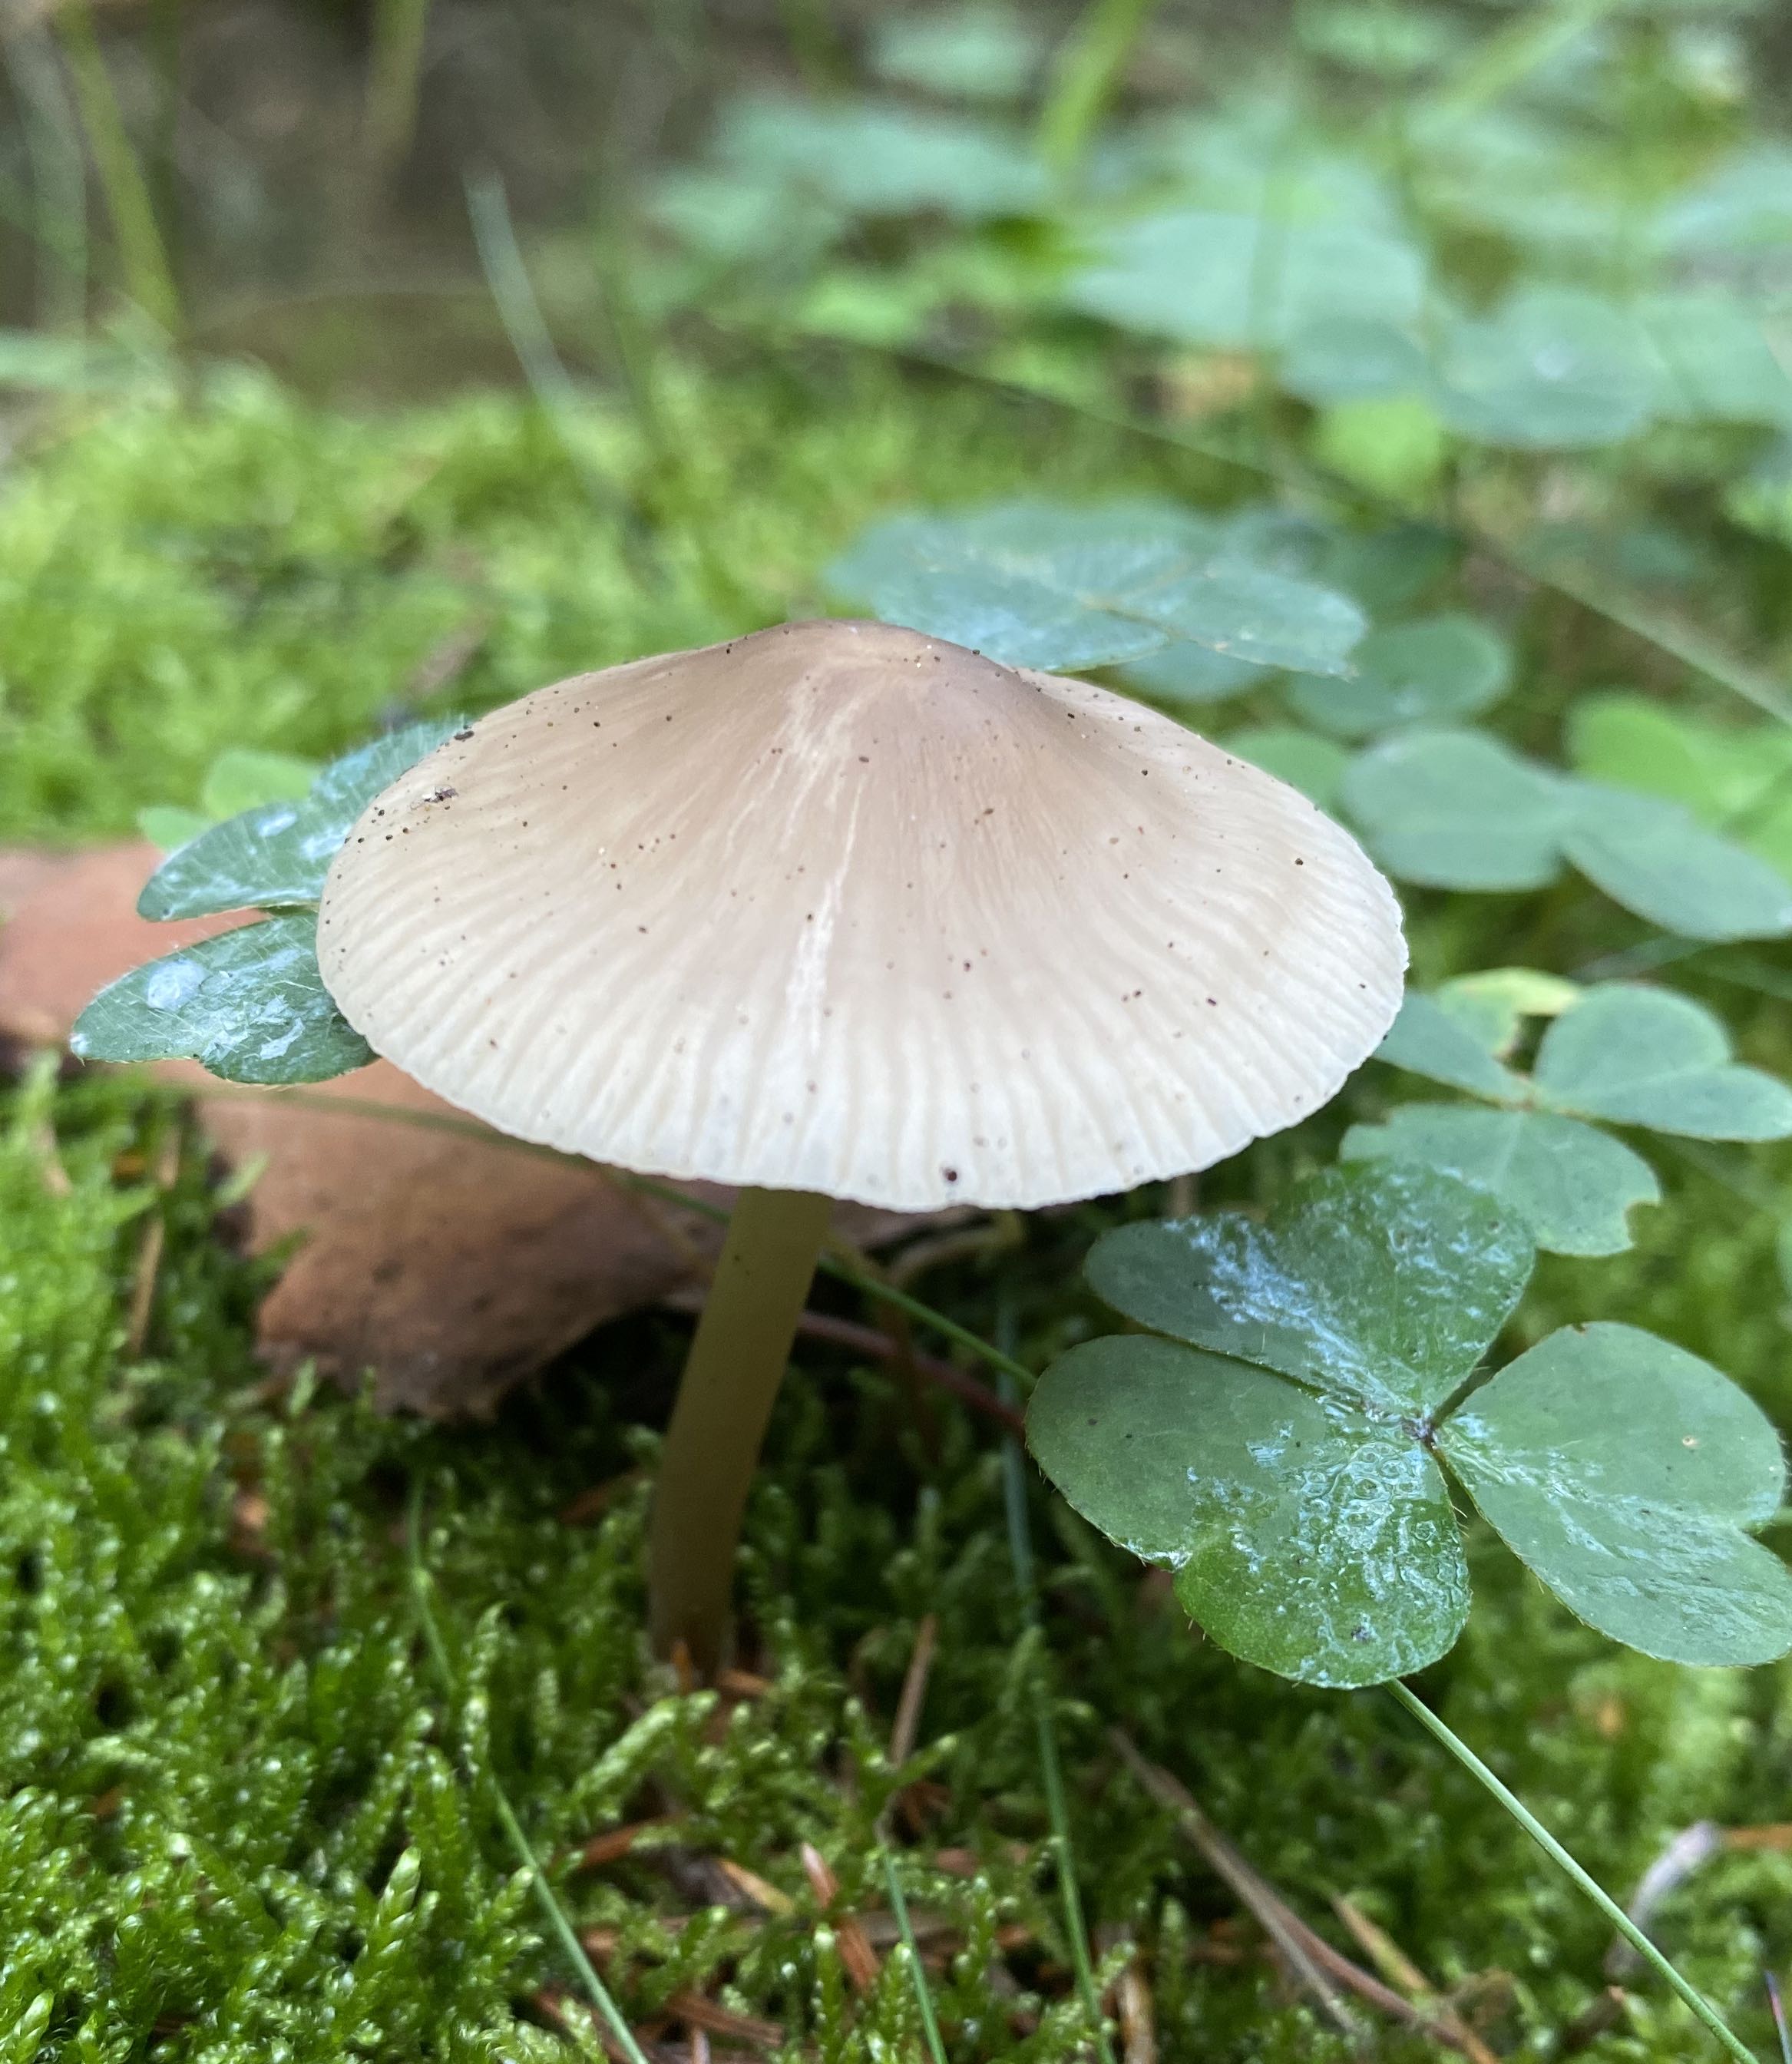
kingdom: Fungi
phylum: Basidiomycota
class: Agaricomycetes
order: Agaricales
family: Mycenaceae
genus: Mycena
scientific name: Mycena galericulata
